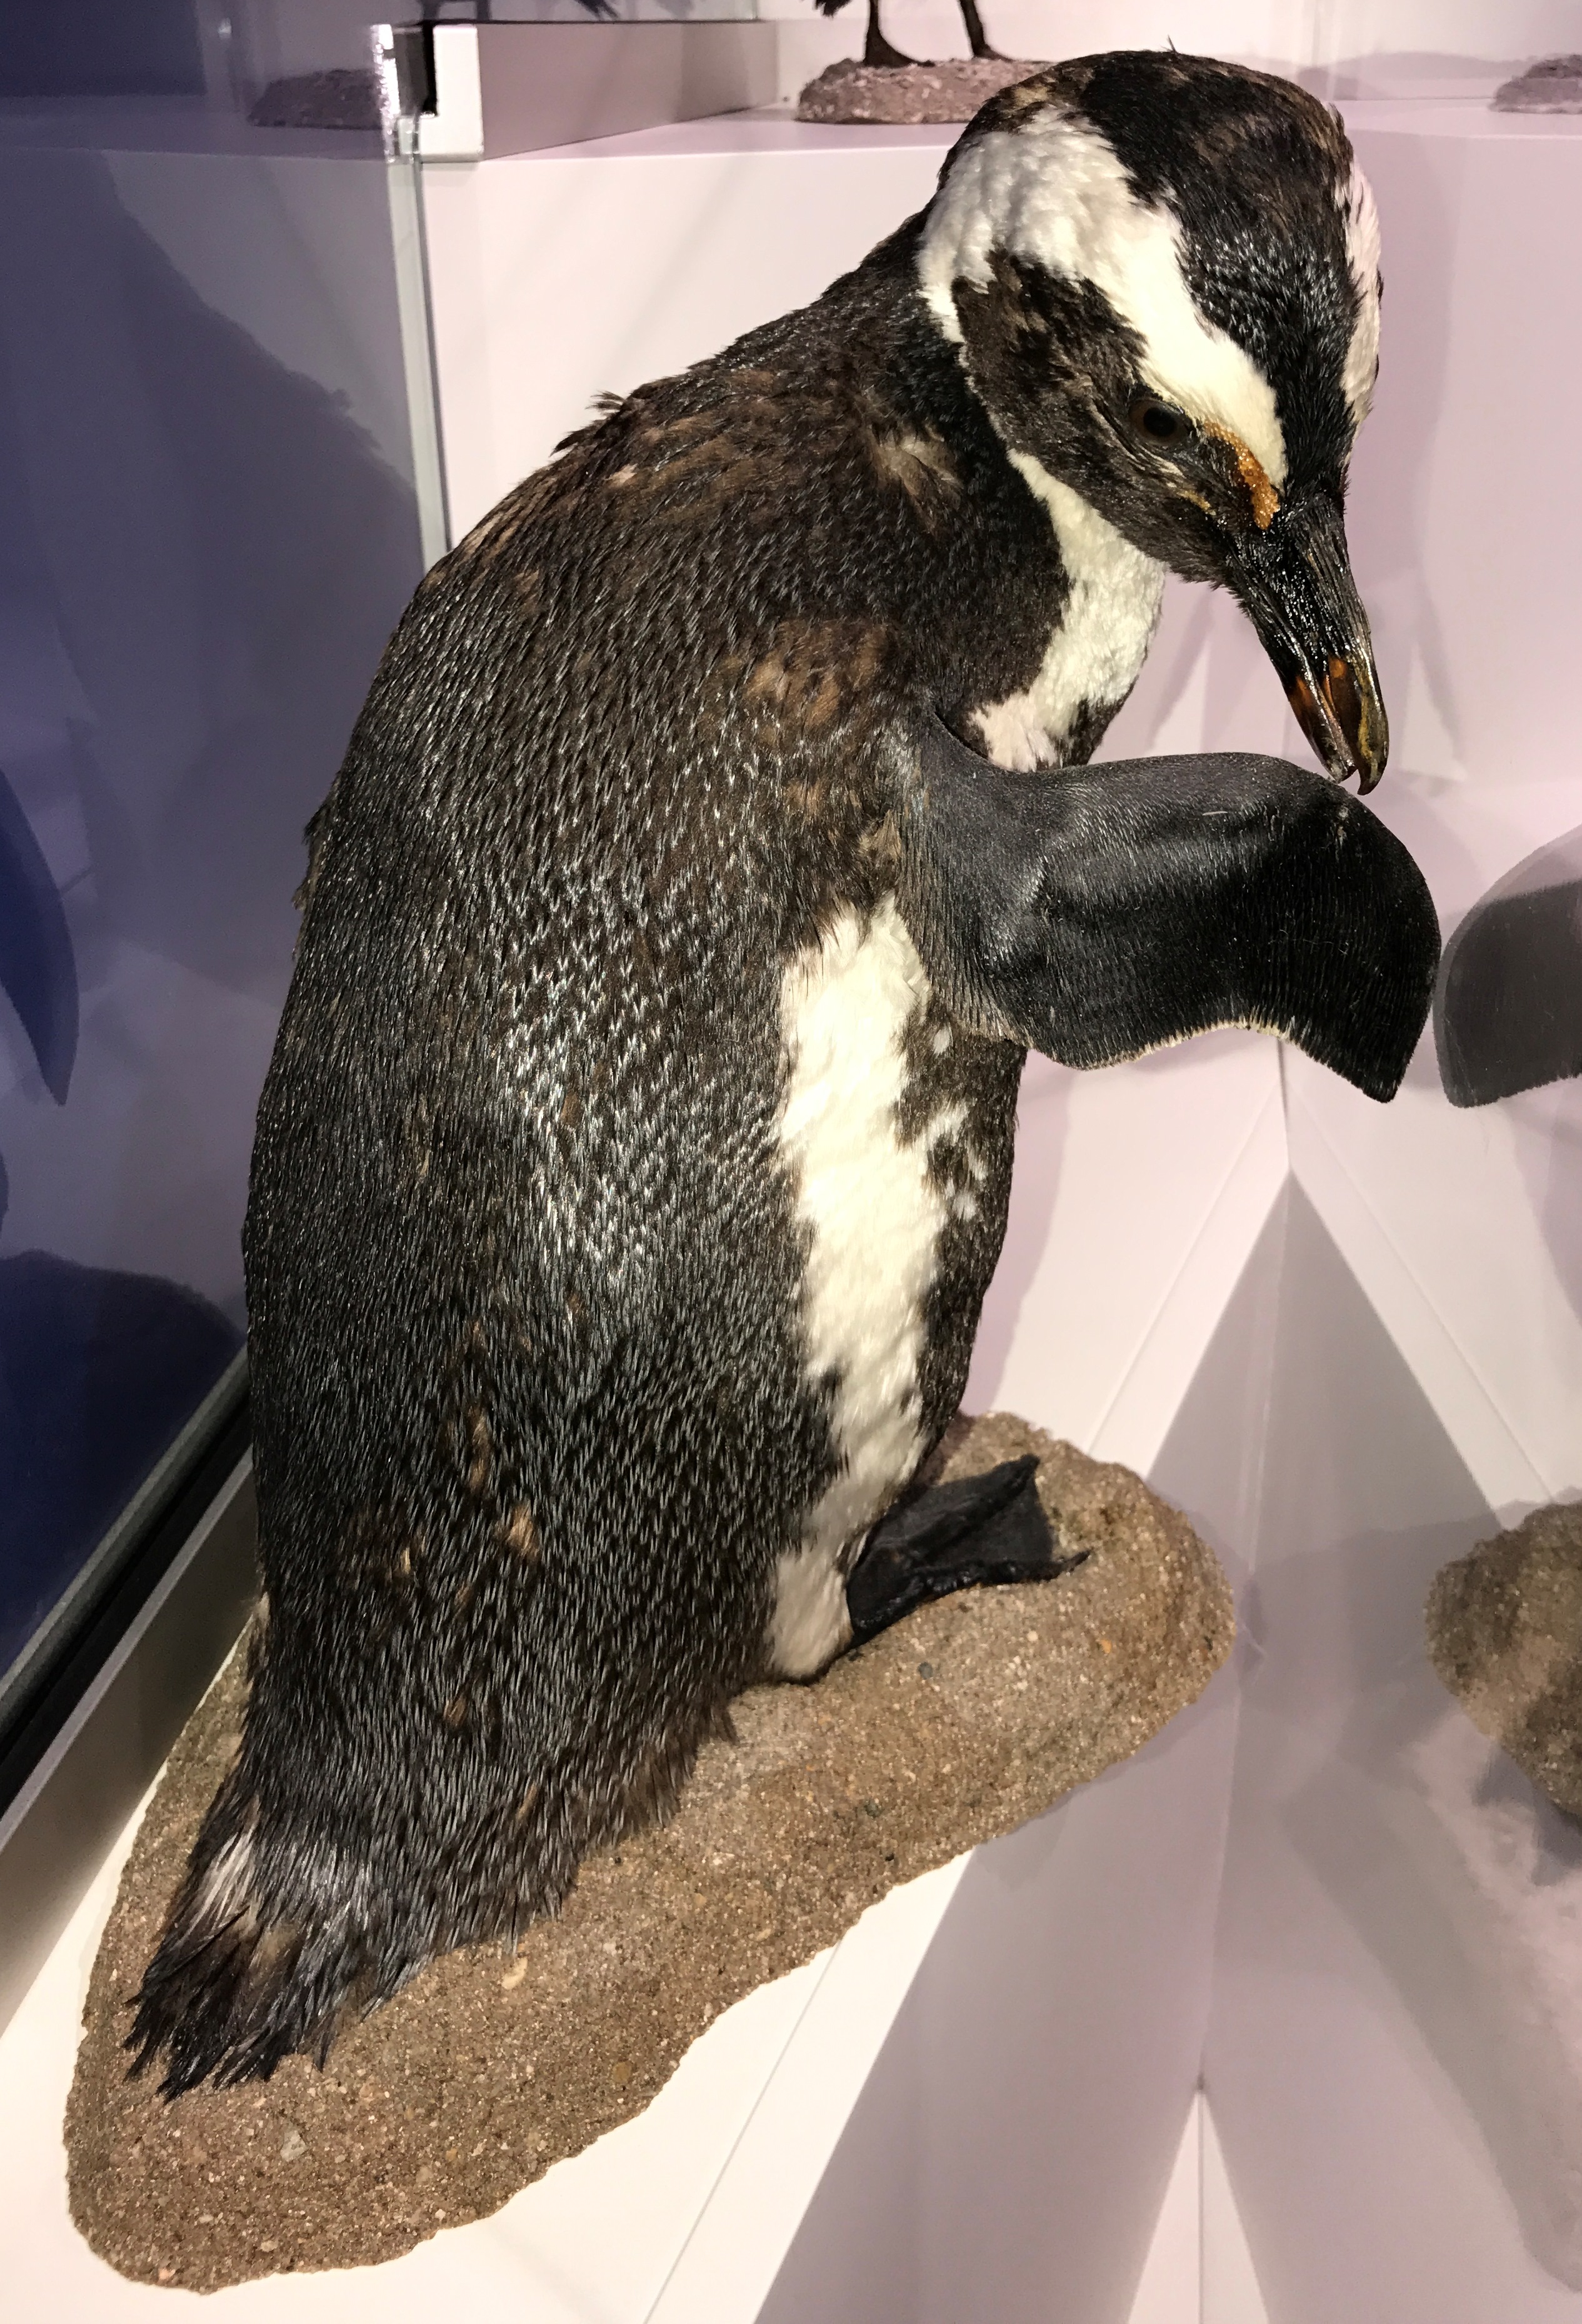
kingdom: Animalia
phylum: Chordata
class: Aves
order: Sphenisciformes
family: Spheniscidae
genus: Spheniscus
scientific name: Spheniscus humboldti
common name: Humboldt penguin
